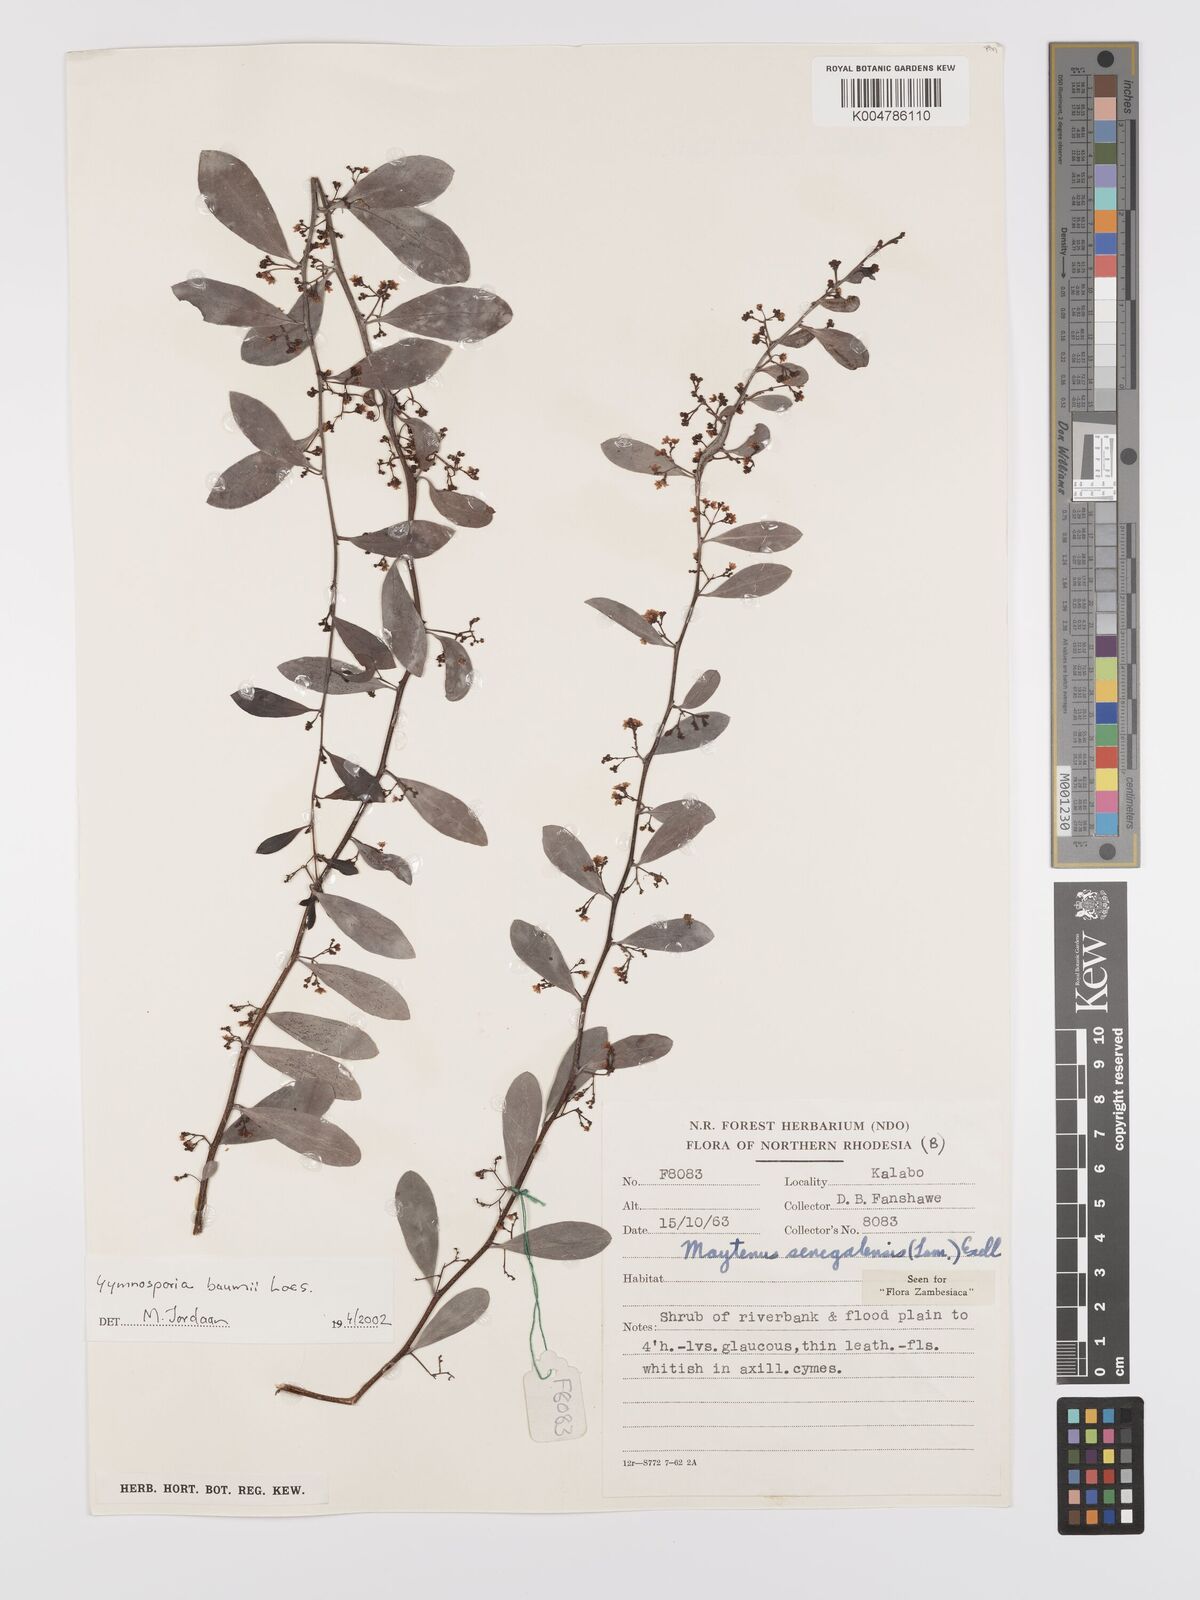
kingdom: Plantae
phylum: Tracheophyta
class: Magnoliopsida
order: Celastrales
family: Celastraceae
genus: Gymnosporia
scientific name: Gymnosporia senegalensis
